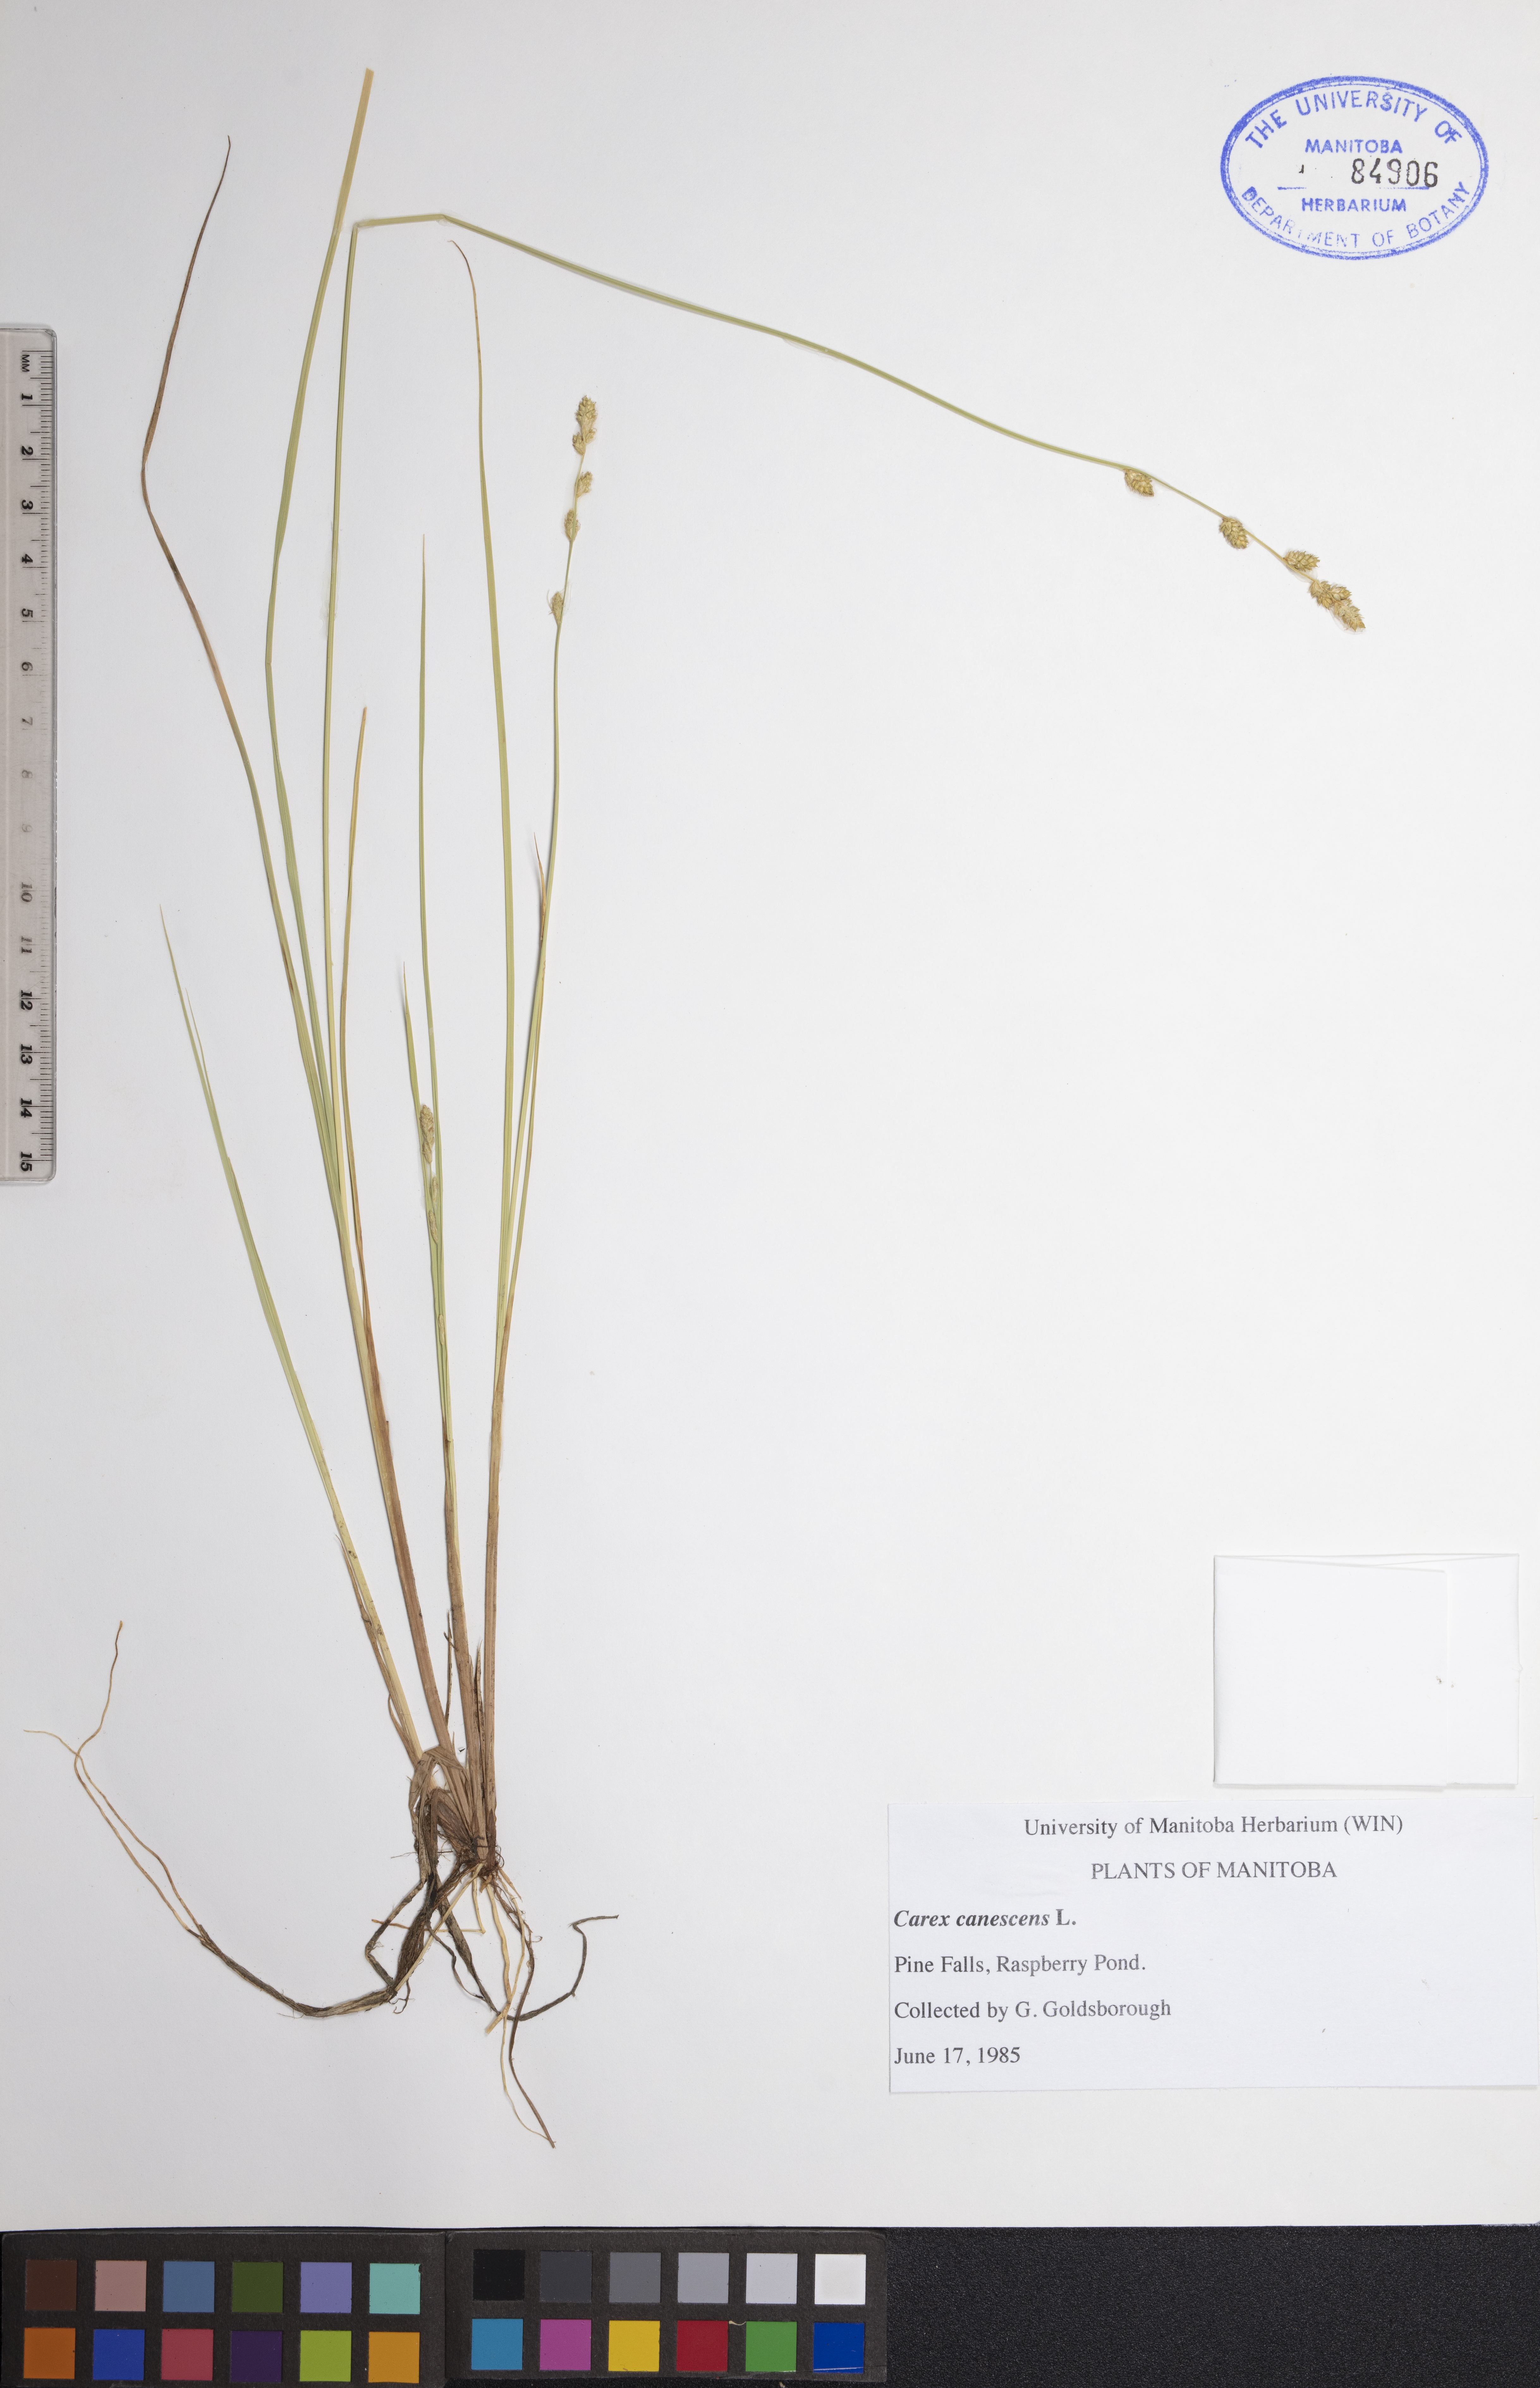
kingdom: Plantae
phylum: Tracheophyta
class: Liliopsida
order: Poales
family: Cyperaceae
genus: Carex
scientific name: Carex canescens
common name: White sedge
